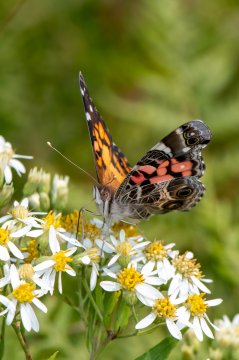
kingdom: Animalia
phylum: Arthropoda
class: Insecta
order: Lepidoptera
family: Nymphalidae
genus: Vanessa
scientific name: Vanessa virginiensis
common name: American Lady
